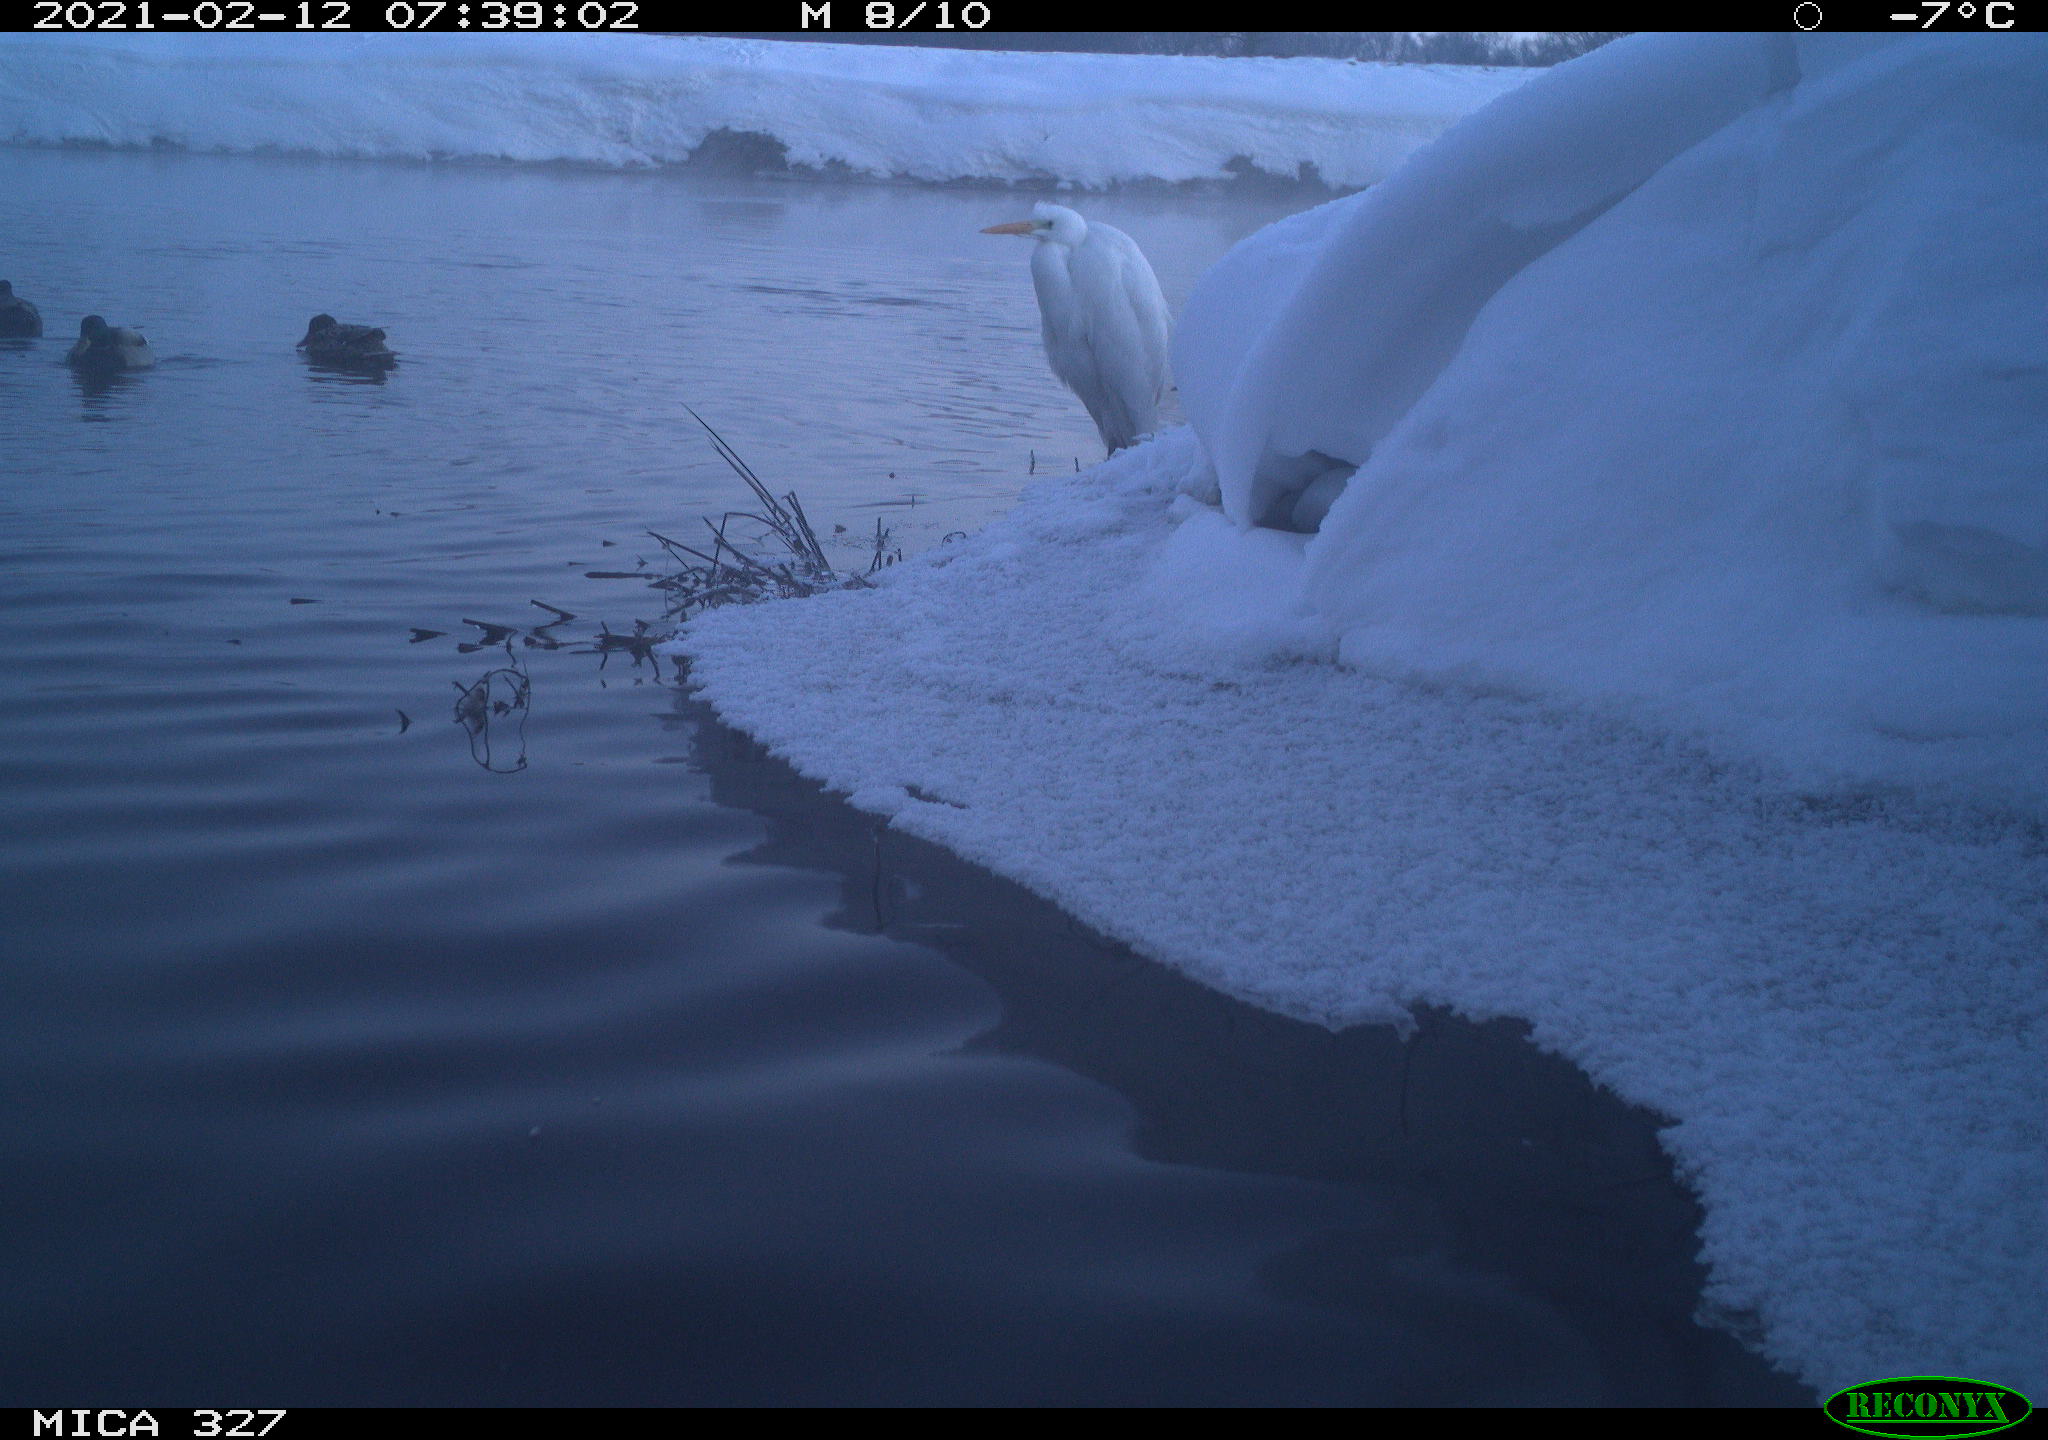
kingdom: Animalia
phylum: Chordata
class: Aves
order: Anseriformes
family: Anatidae
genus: Anas
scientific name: Anas
